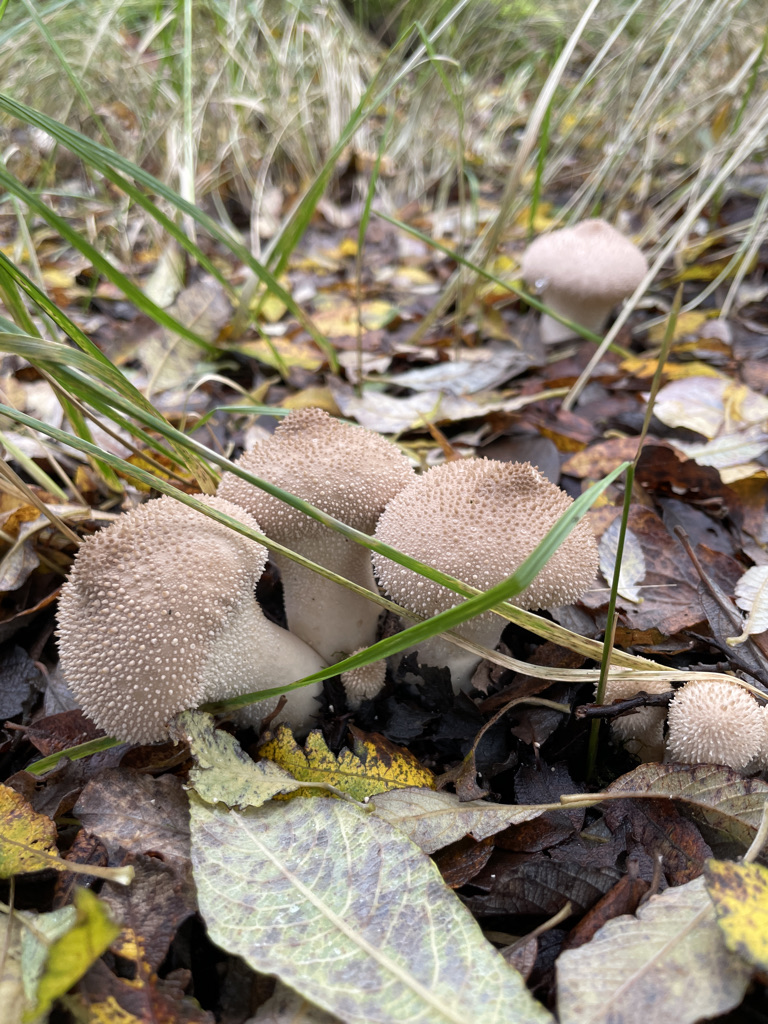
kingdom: Fungi
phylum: Basidiomycota
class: Agaricomycetes
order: Agaricales
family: Lycoperdaceae
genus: Lycoperdon
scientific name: Lycoperdon perlatum
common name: krystal-støvbold
